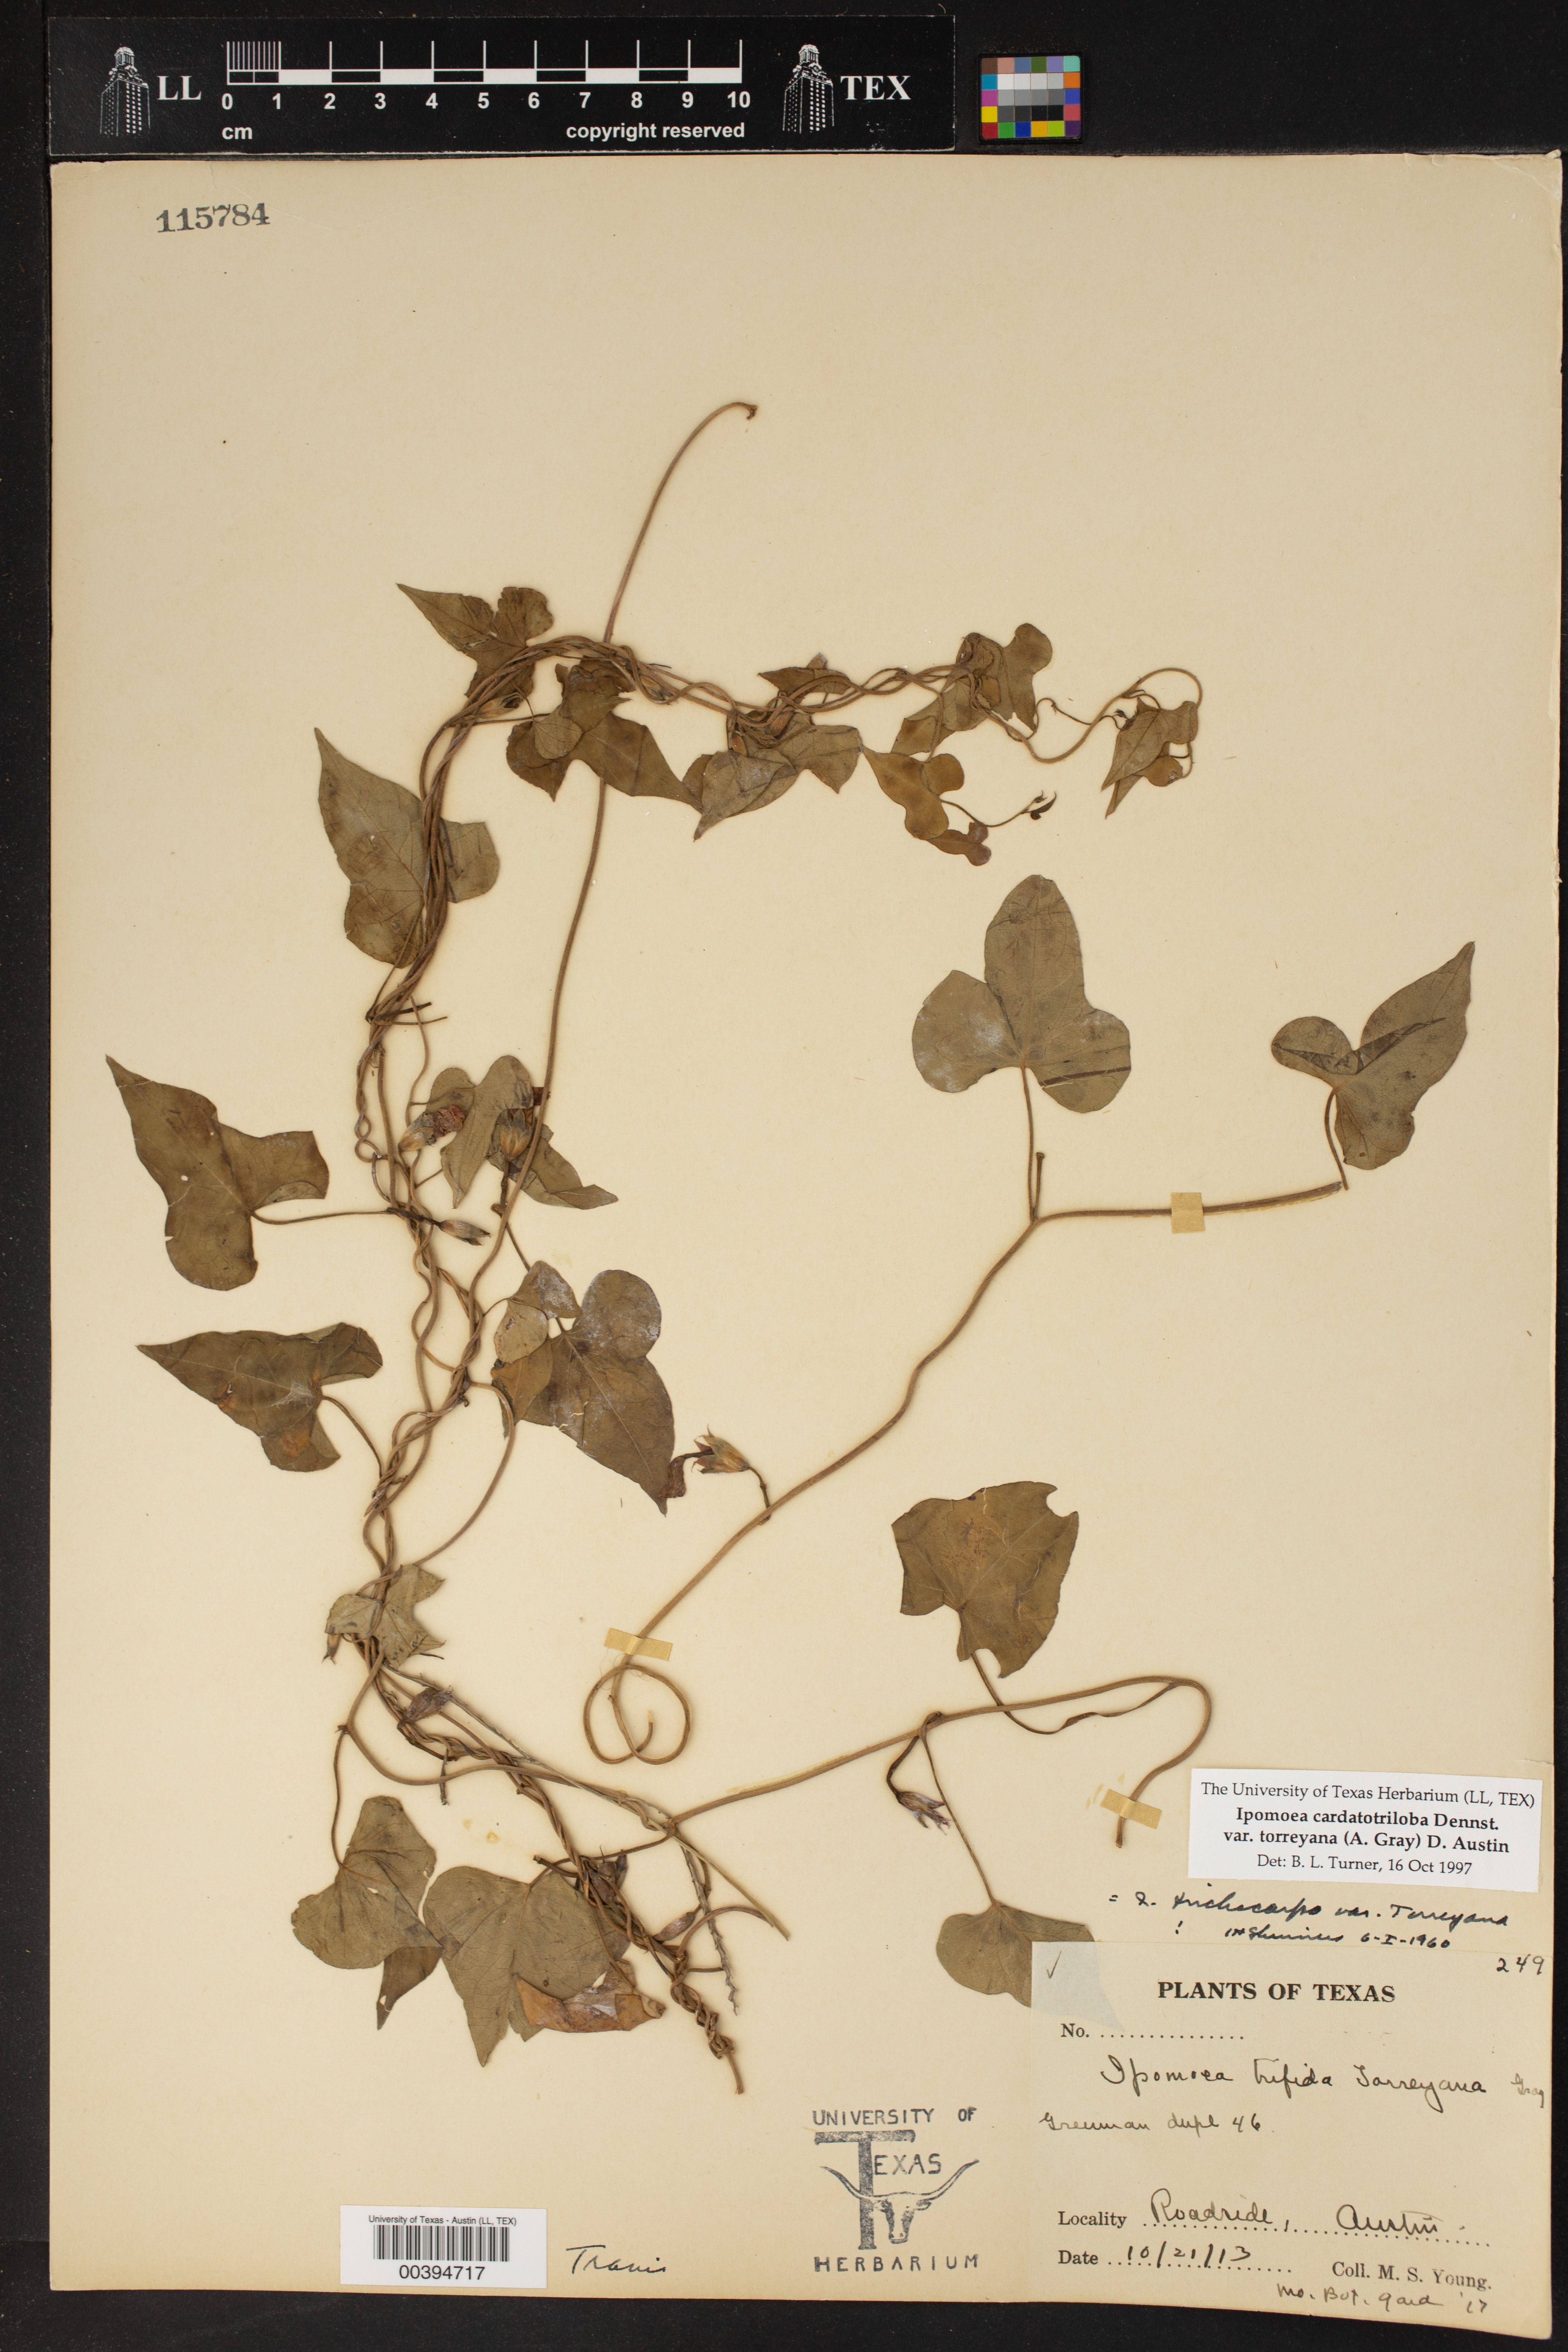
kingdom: Plantae
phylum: Tracheophyta
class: Magnoliopsida
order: Solanales
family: Convolvulaceae
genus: Ipomoea
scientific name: Ipomoea cordatotriloba
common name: Cotton morning glory
